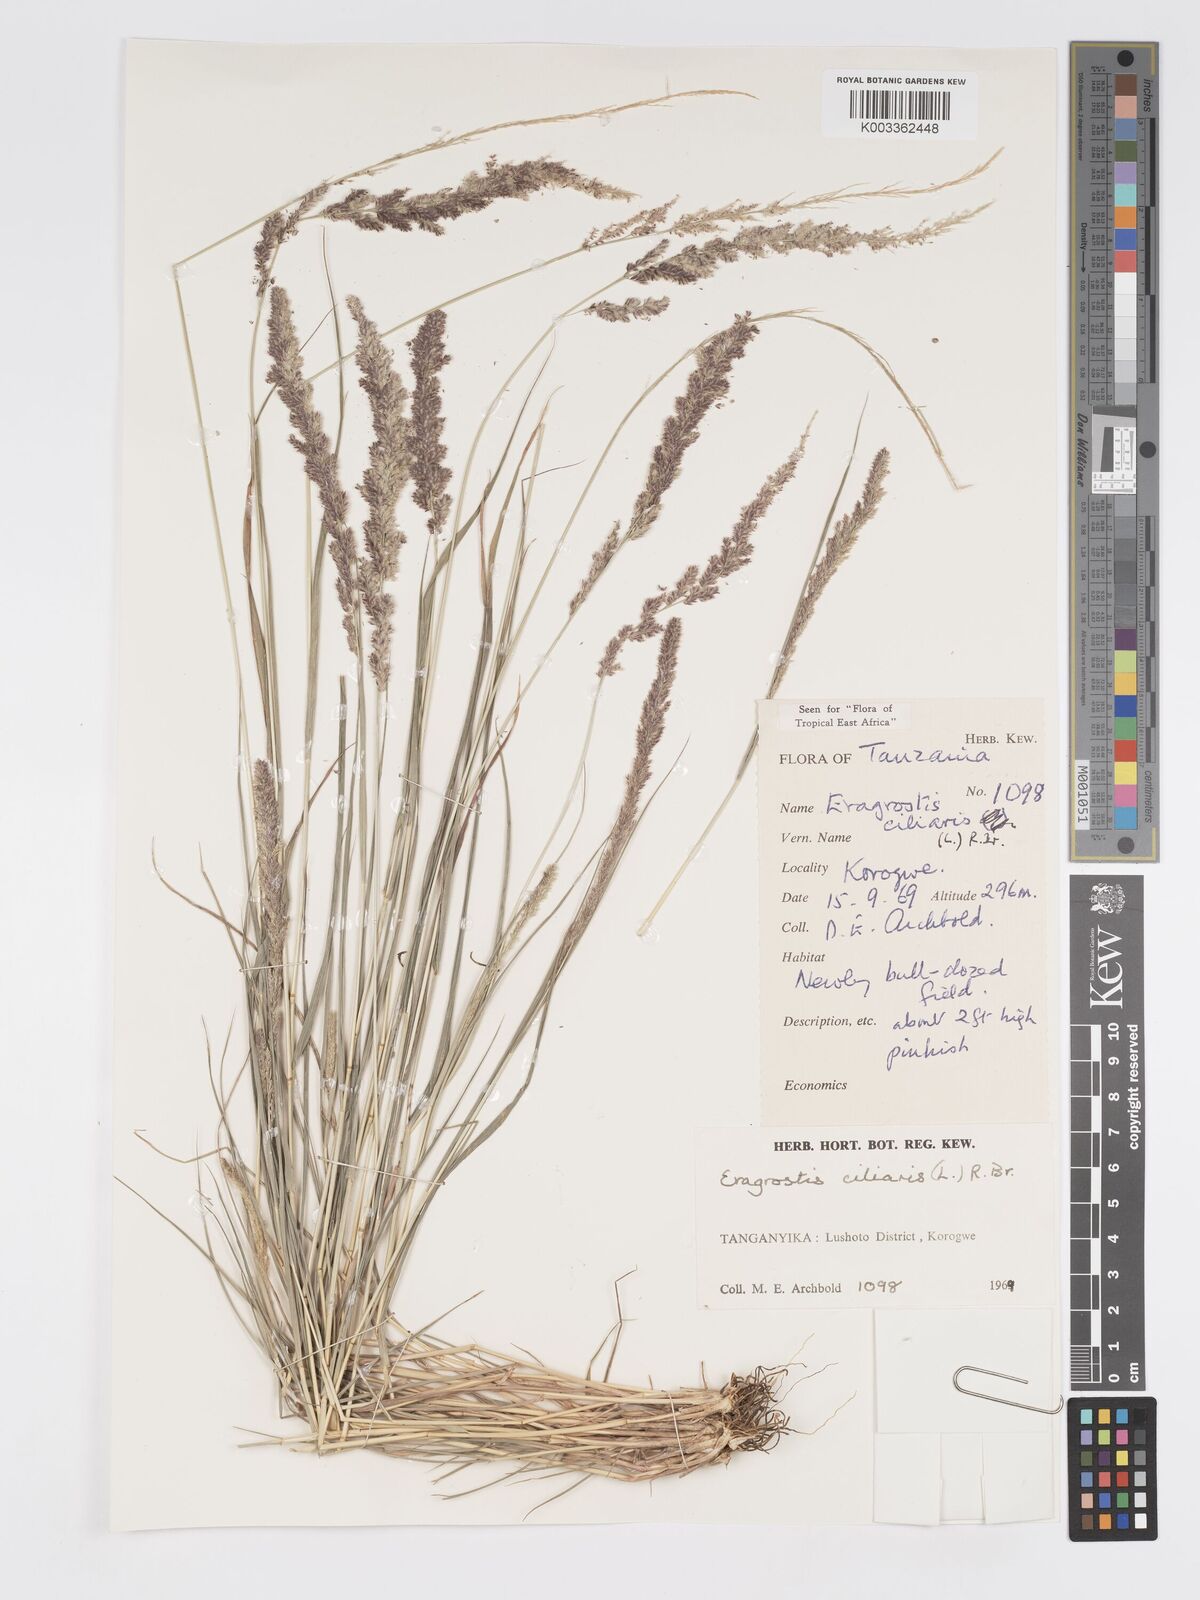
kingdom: Plantae
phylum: Tracheophyta
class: Liliopsida
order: Poales
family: Poaceae
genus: Eragrostis
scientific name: Eragrostis ciliaris
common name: Gophertail lovegrass
